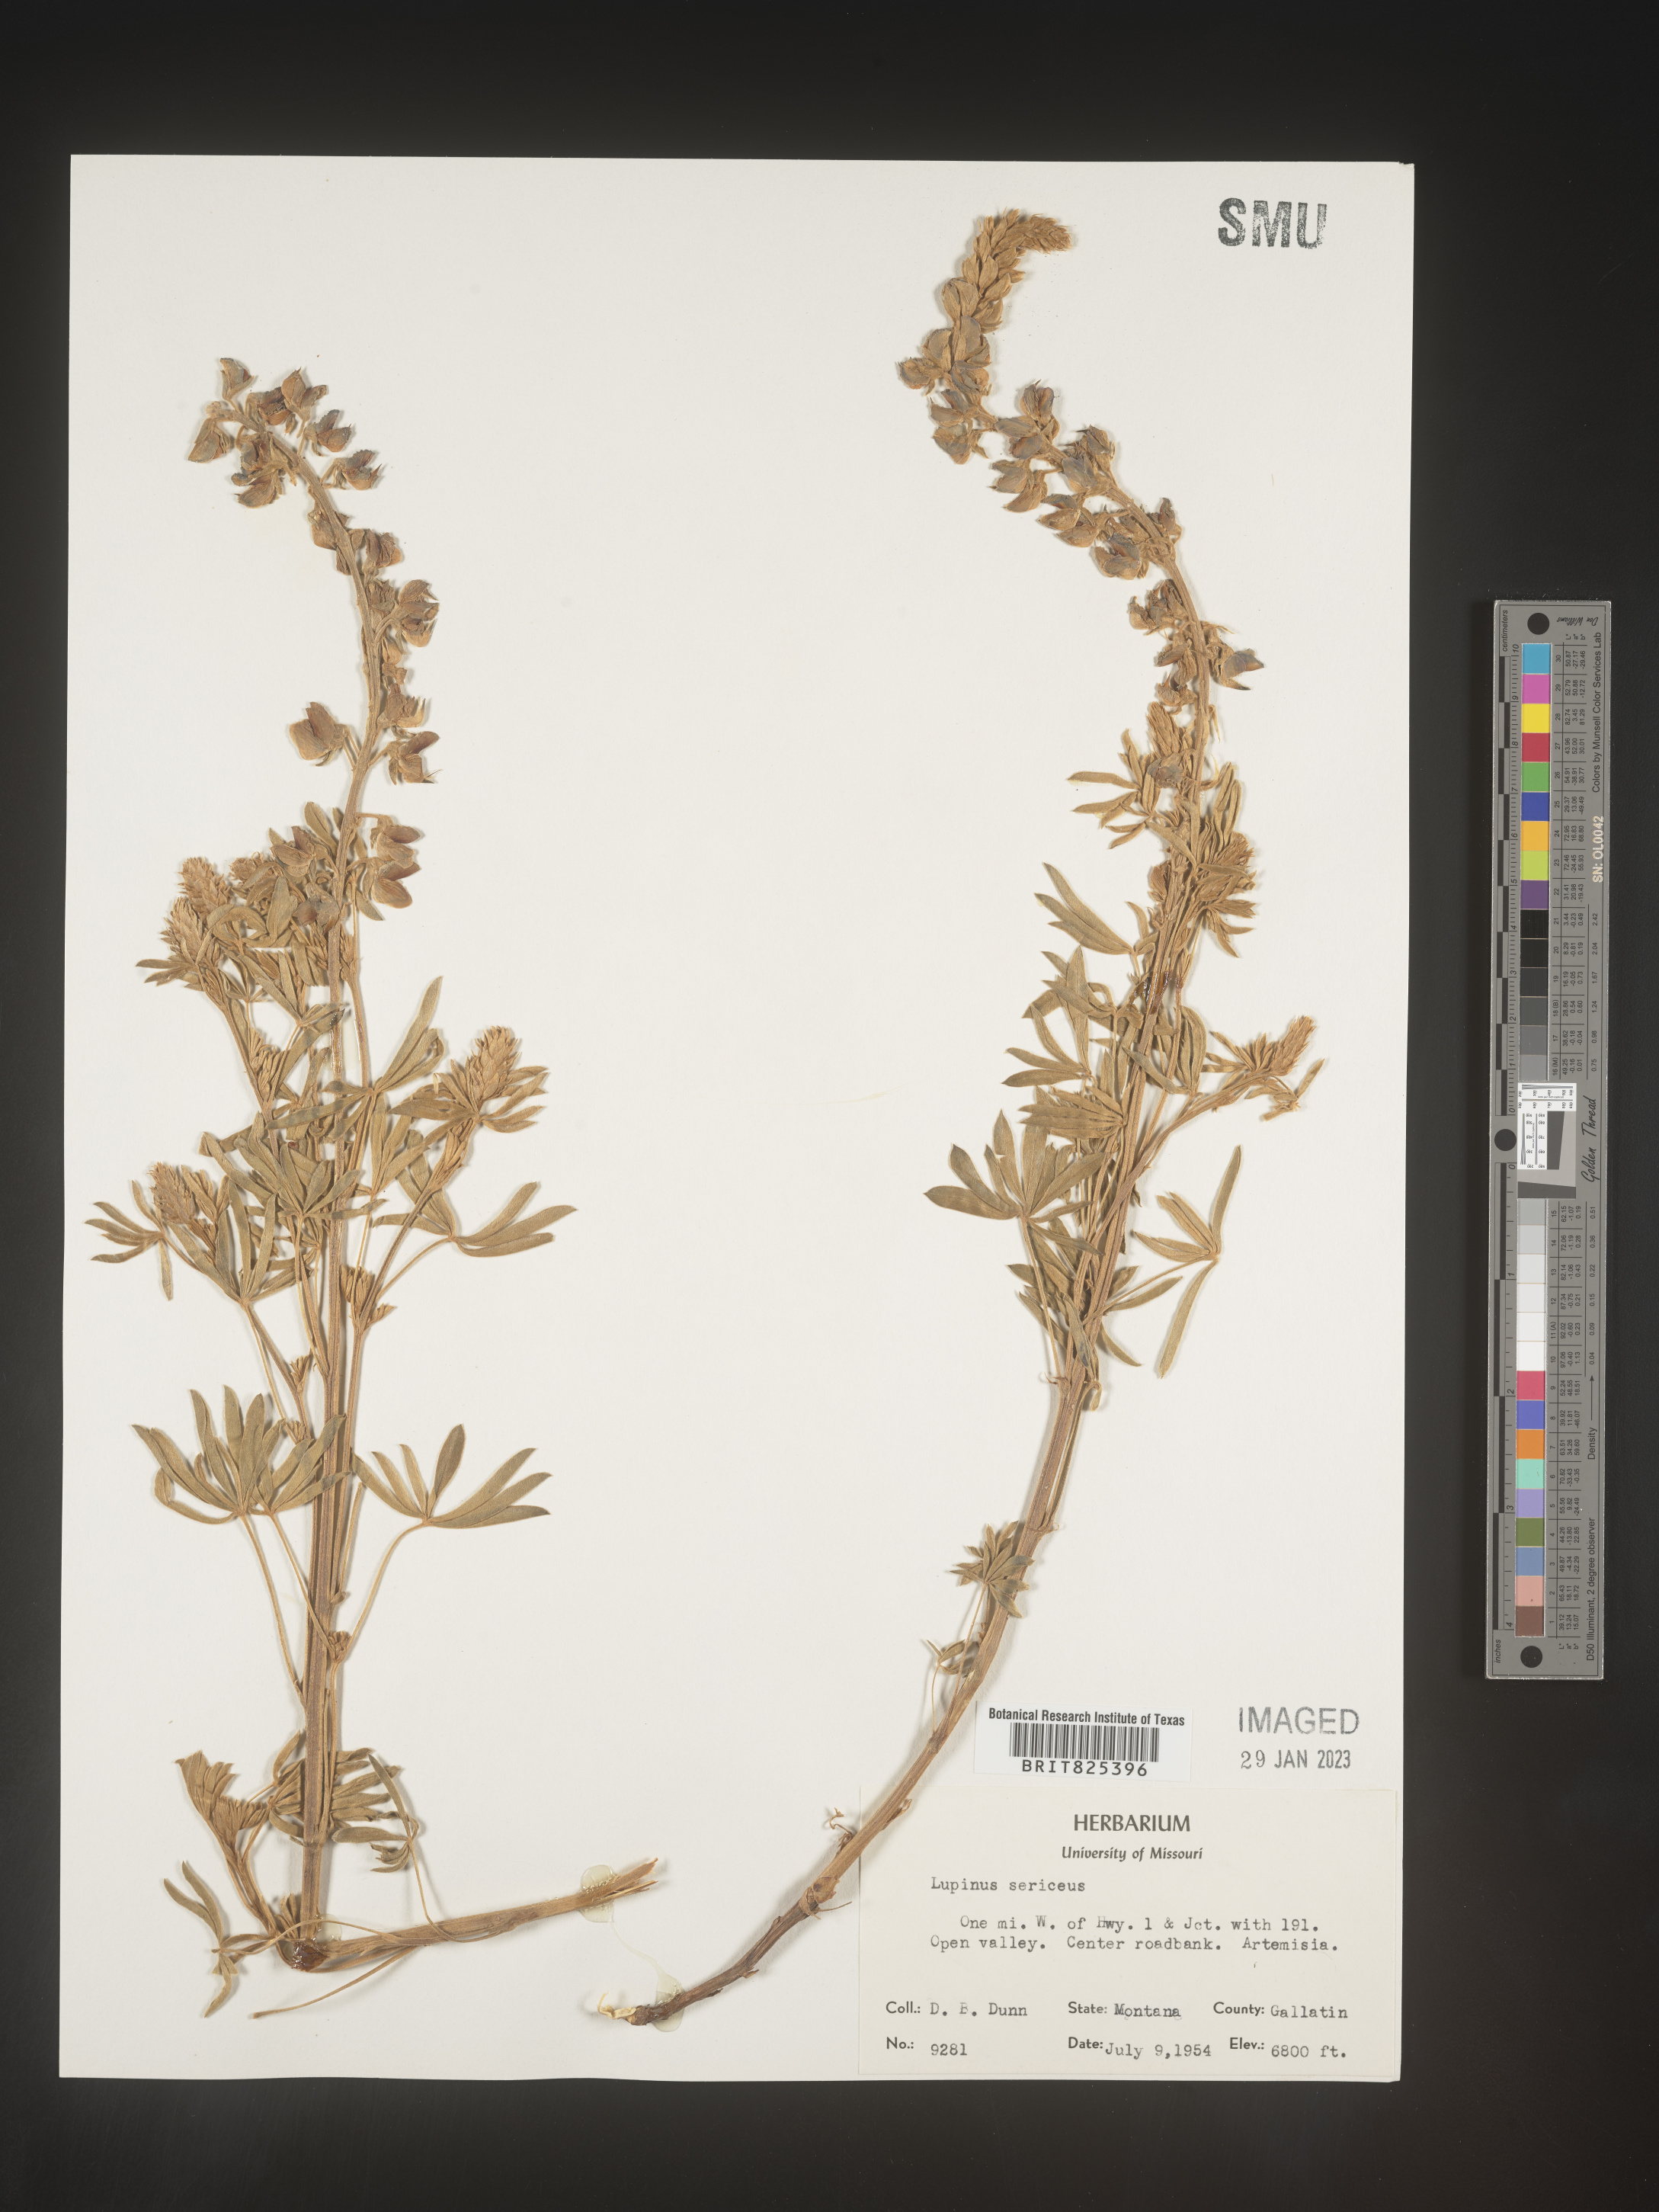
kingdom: Plantae
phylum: Tracheophyta
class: Magnoliopsida
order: Fabales
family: Fabaceae
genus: Lupinus
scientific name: Lupinus sericeus
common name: Silky lupine
